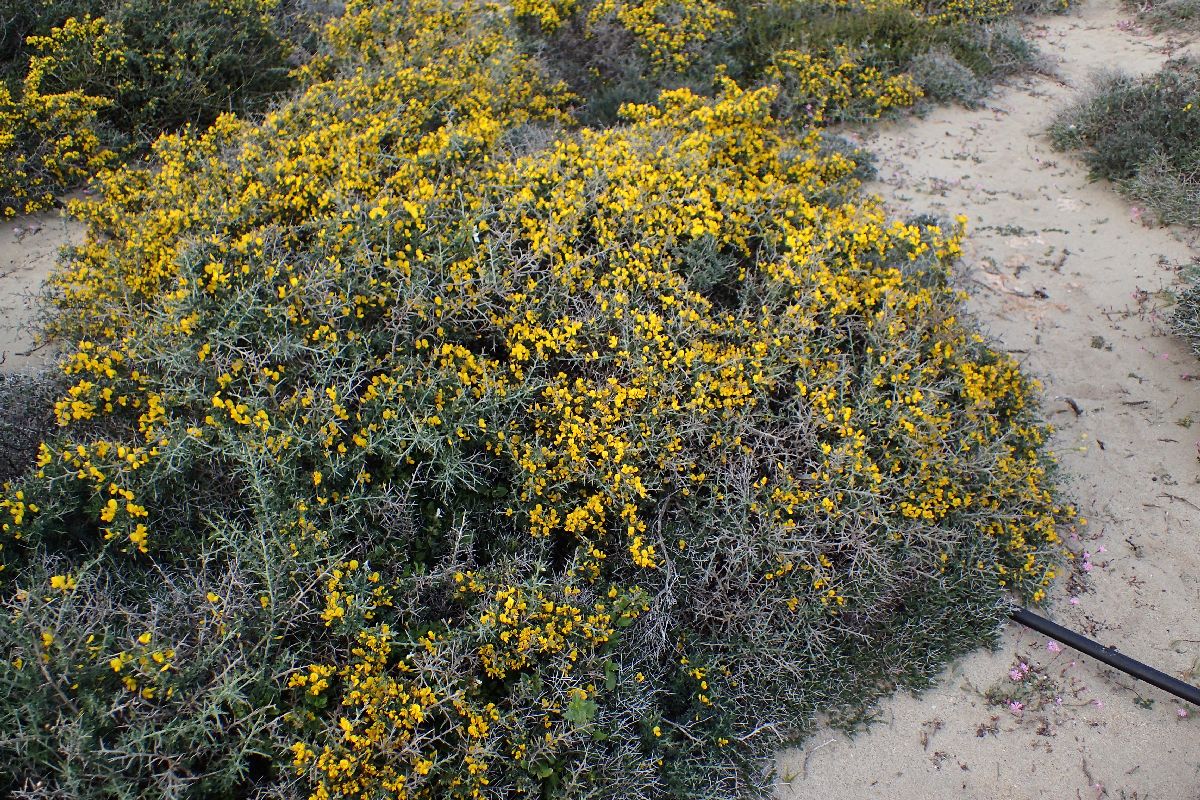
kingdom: Plantae
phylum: Tracheophyta
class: Magnoliopsida
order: Fabales
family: Fabaceae
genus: Calicotome
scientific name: Calicotome villosa
